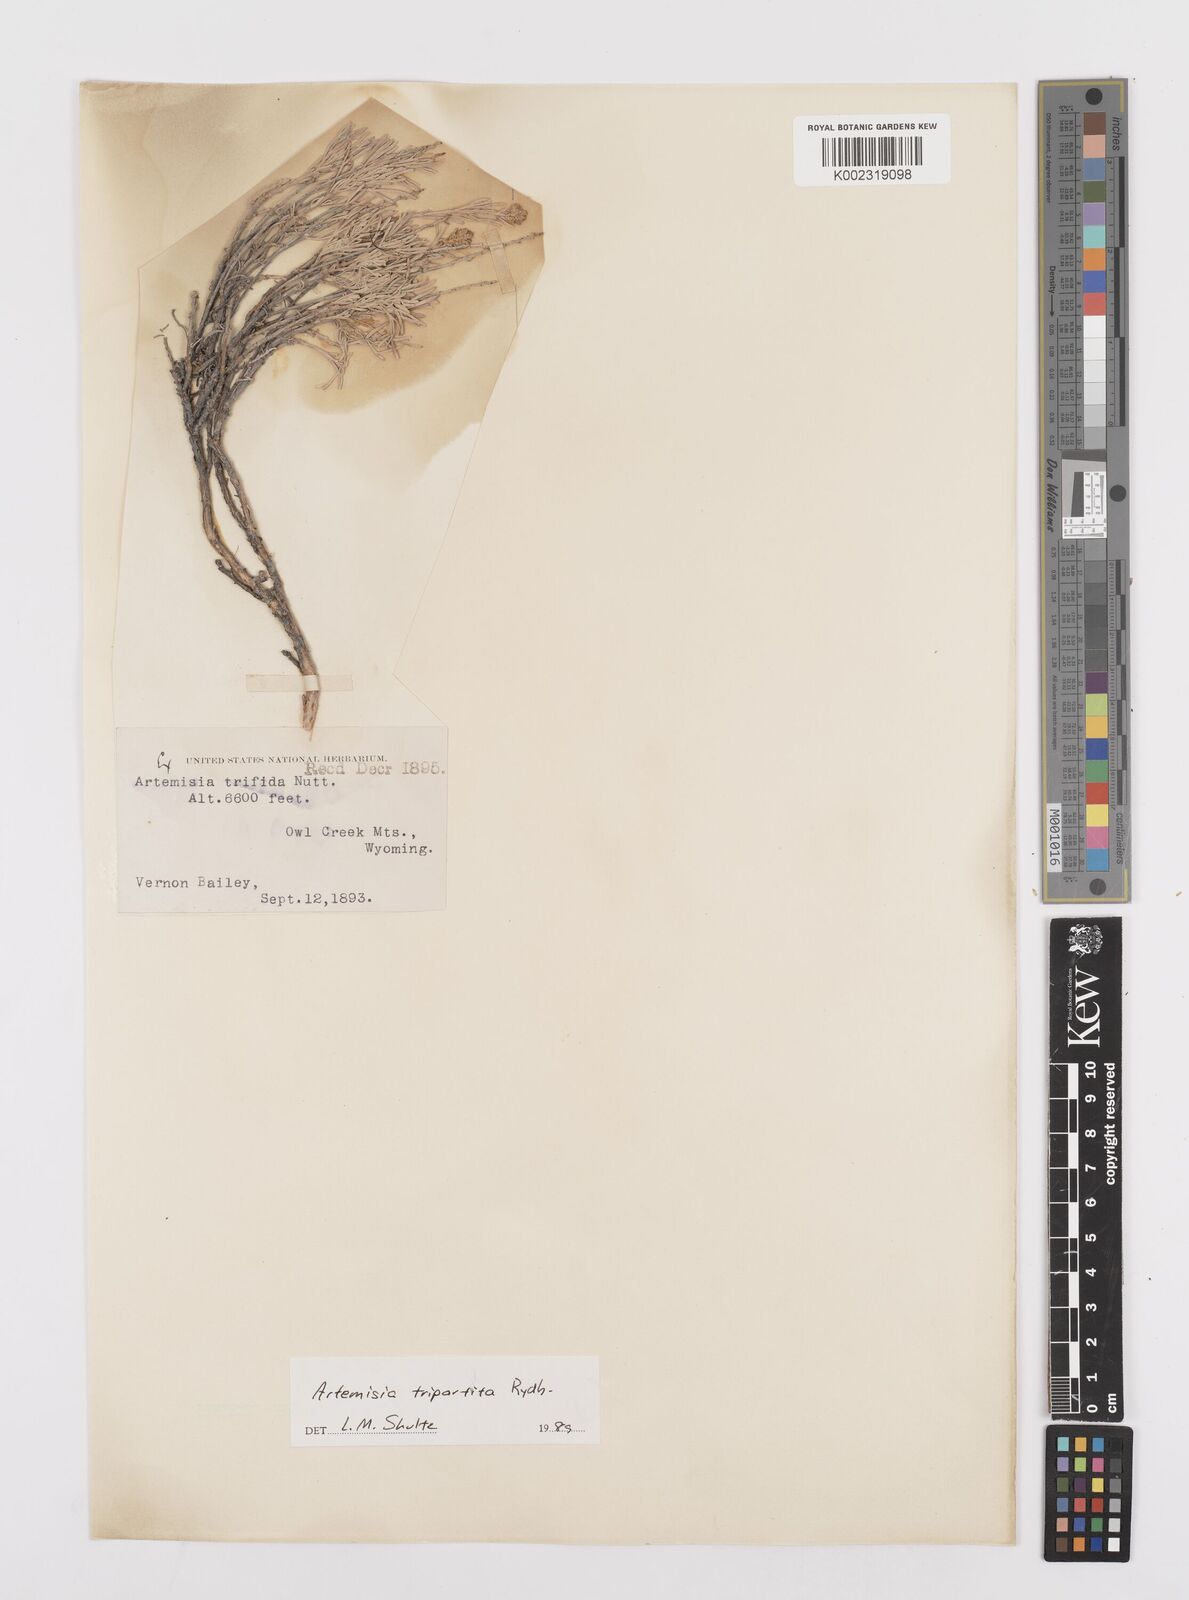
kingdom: Plantae
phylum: Tracheophyta
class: Magnoliopsida
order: Asterales
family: Asteraceae
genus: Artemisia
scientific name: Artemisia tripartita
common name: Three-tip sagebrush
